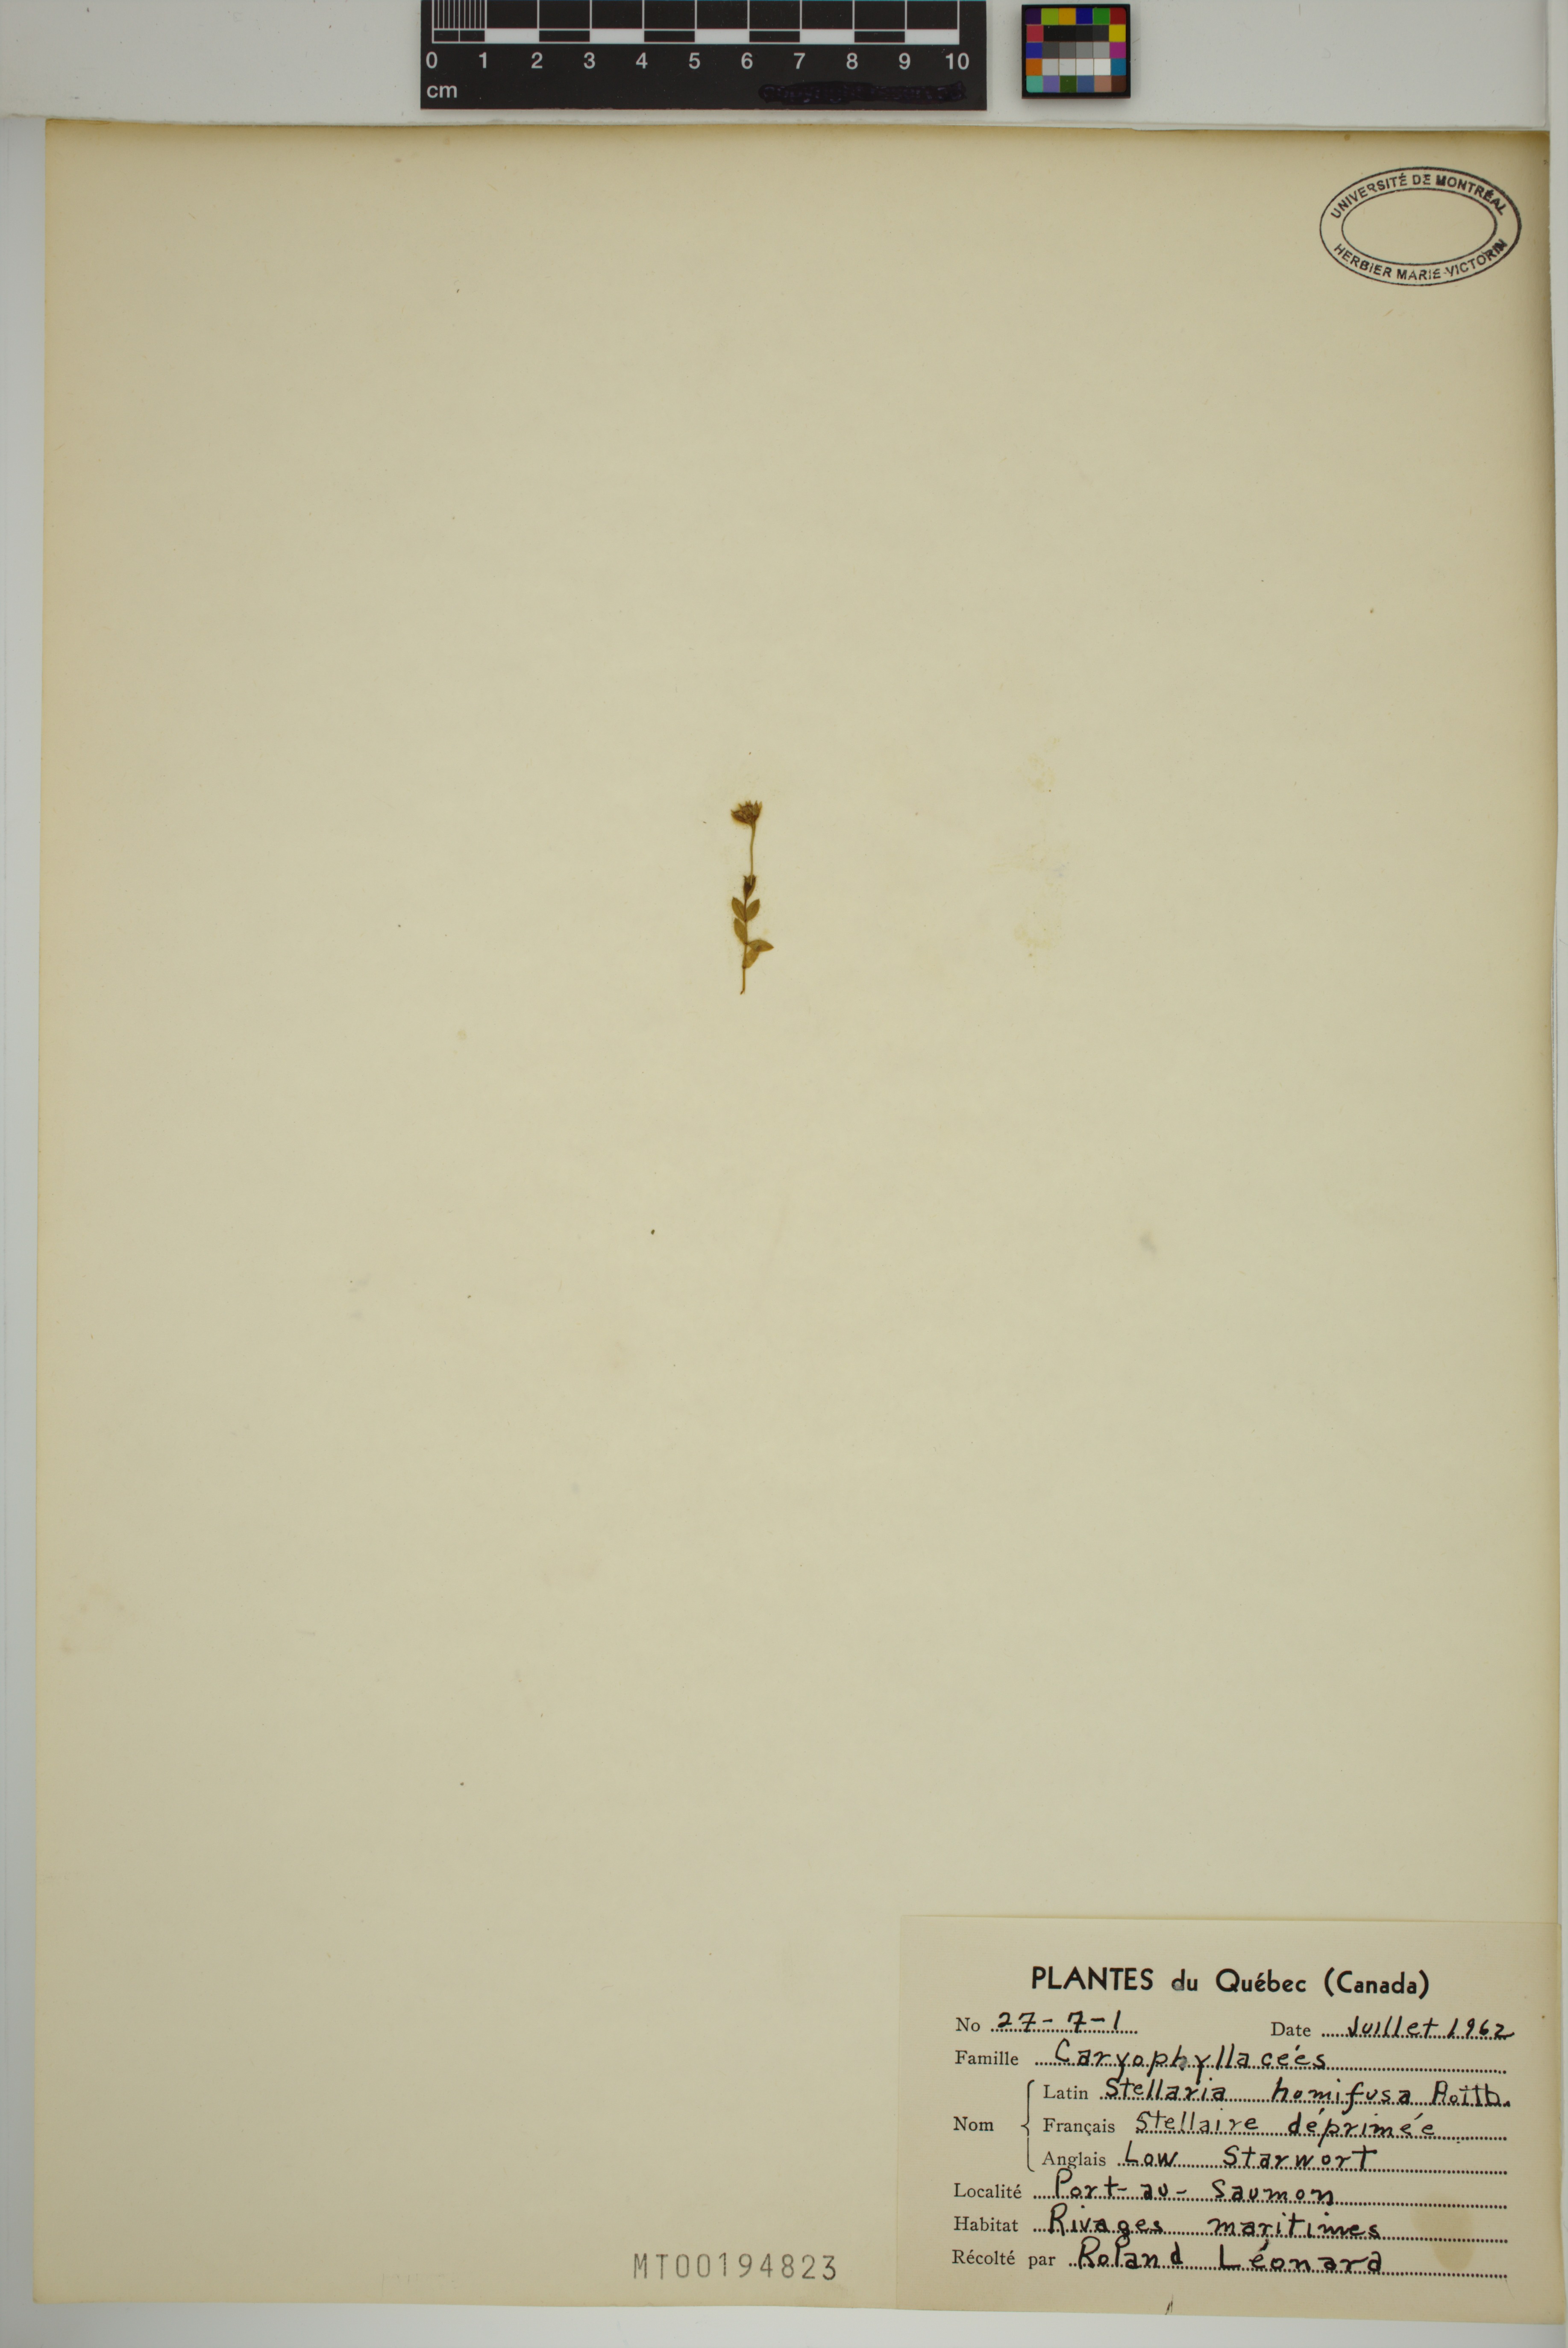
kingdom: Plantae
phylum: Tracheophyta
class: Magnoliopsida
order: Caryophyllales
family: Caryophyllaceae
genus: Stellaria
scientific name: Stellaria humifusa
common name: Creeping starwort
